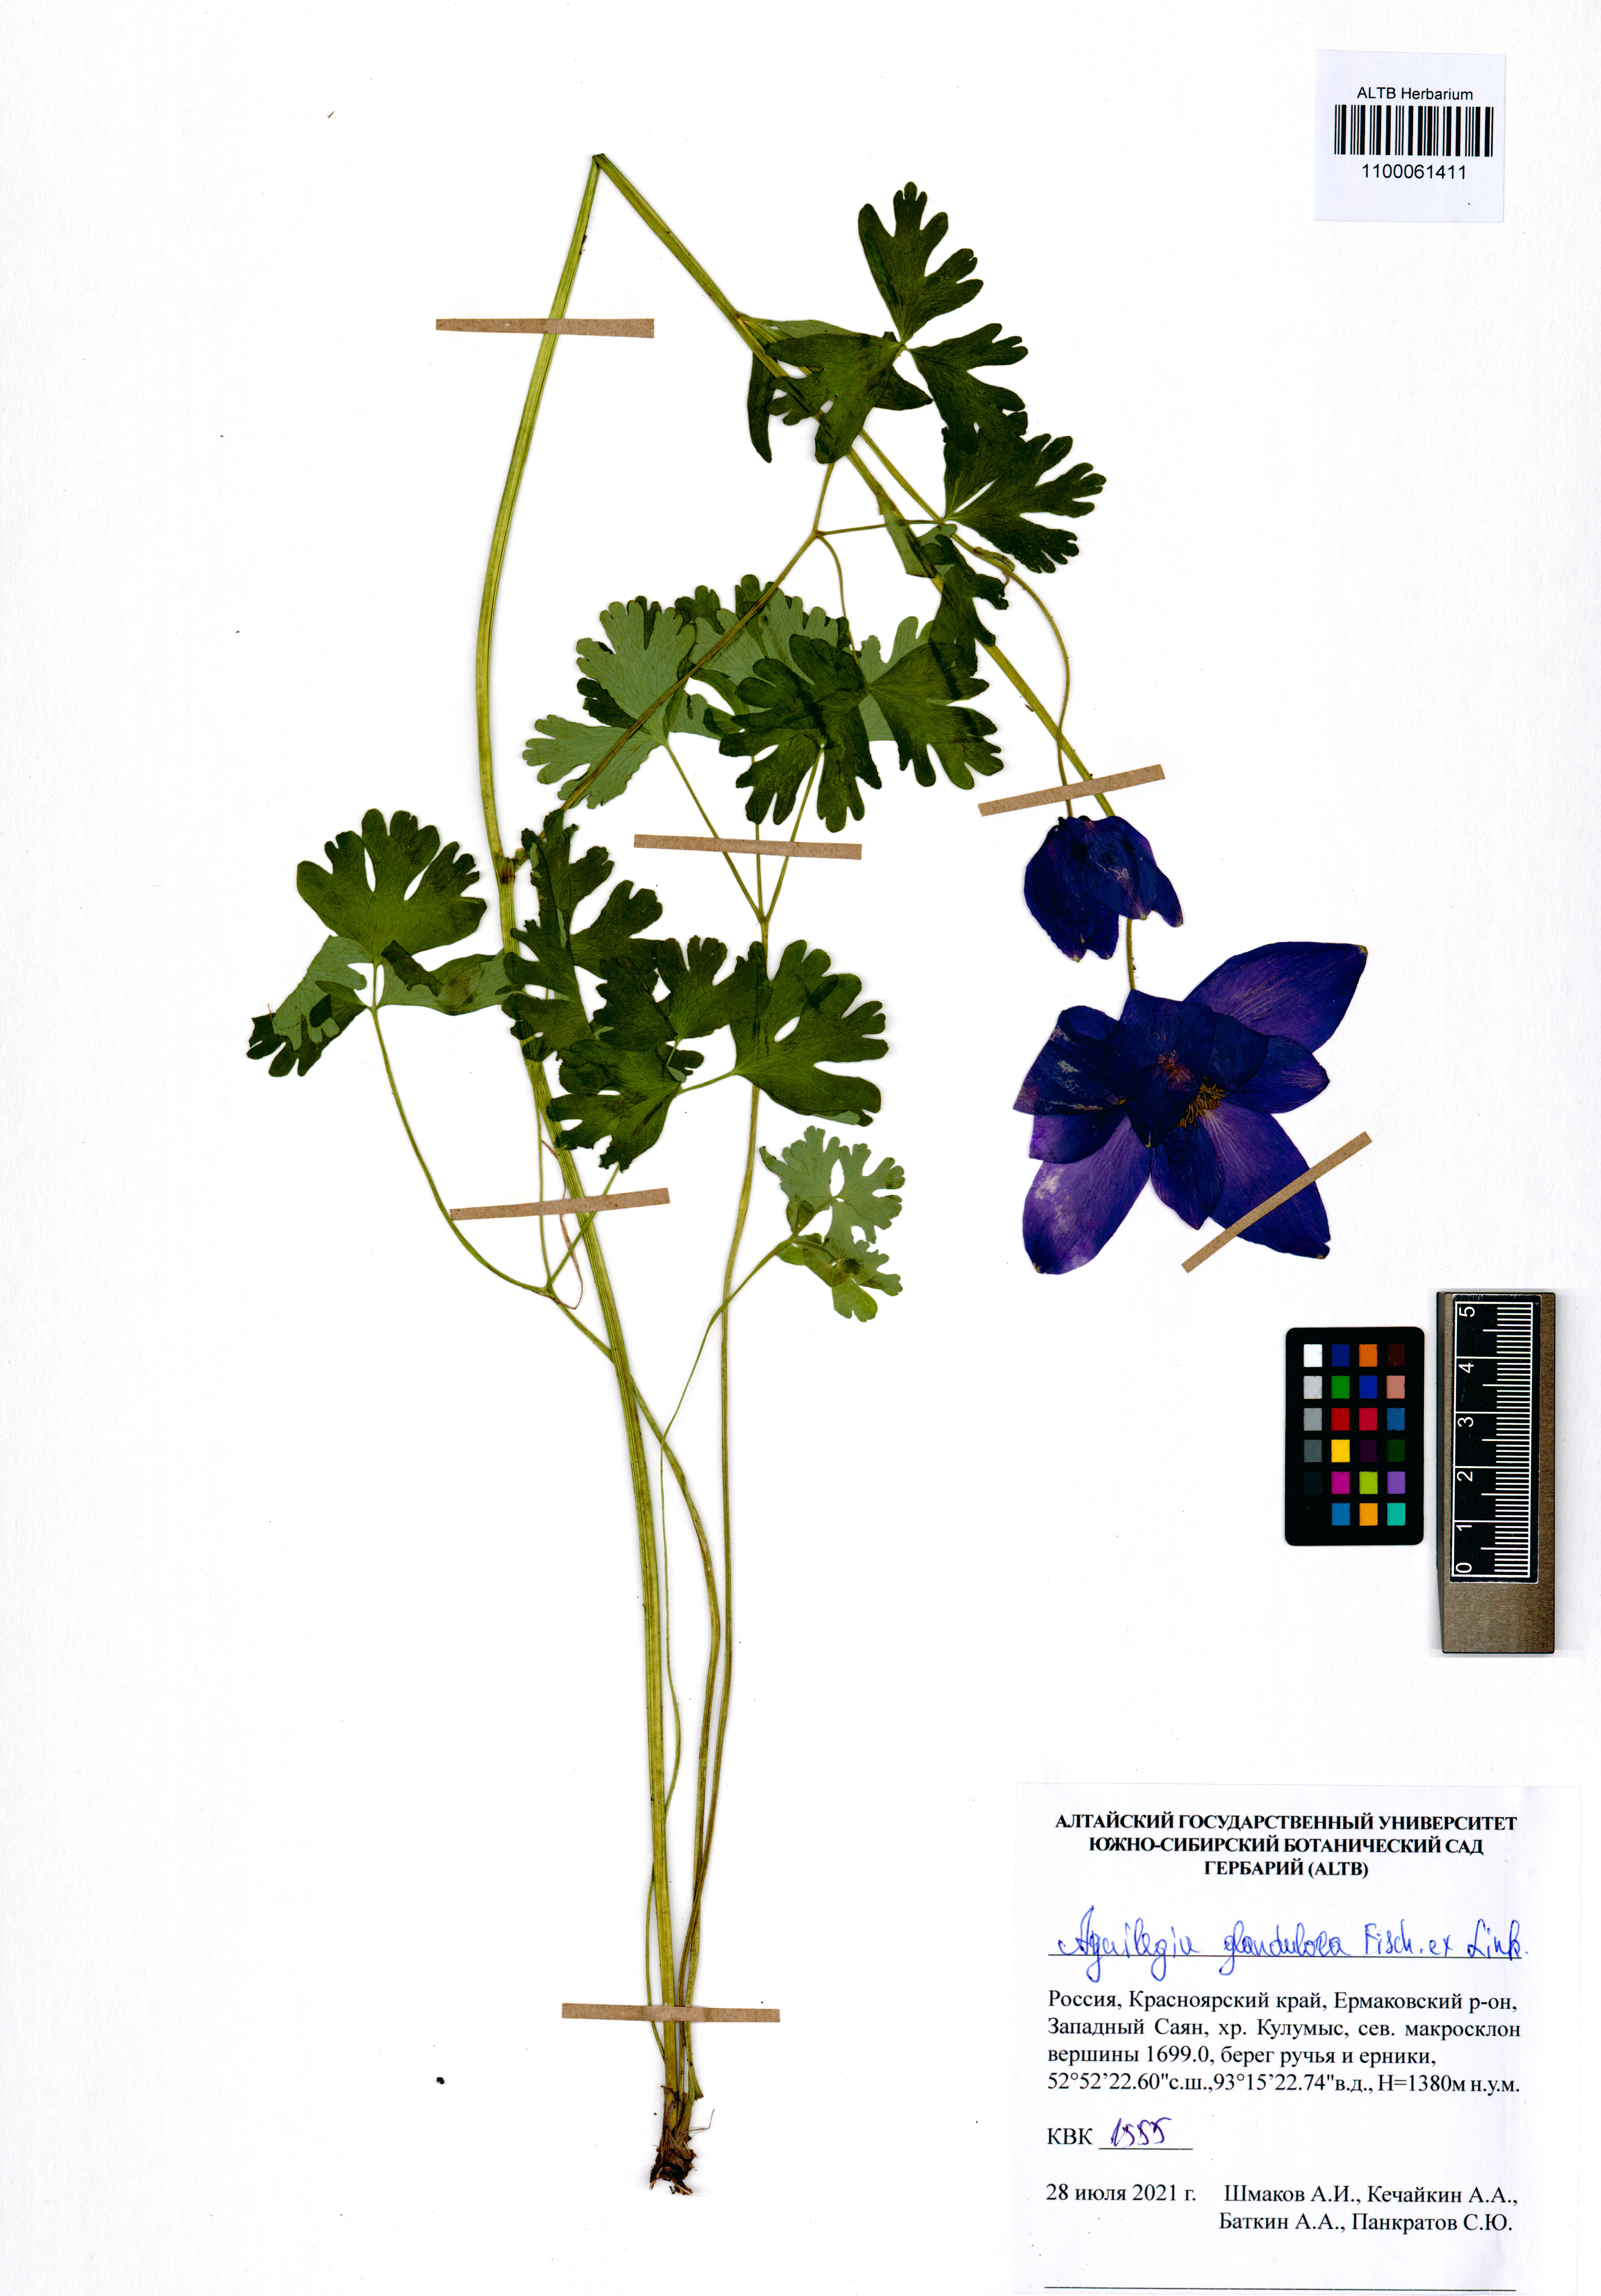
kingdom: Plantae
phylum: Tracheophyta
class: Magnoliopsida
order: Ranunculales
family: Ranunculaceae
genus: Aquilegia
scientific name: Aquilegia glandulosa
